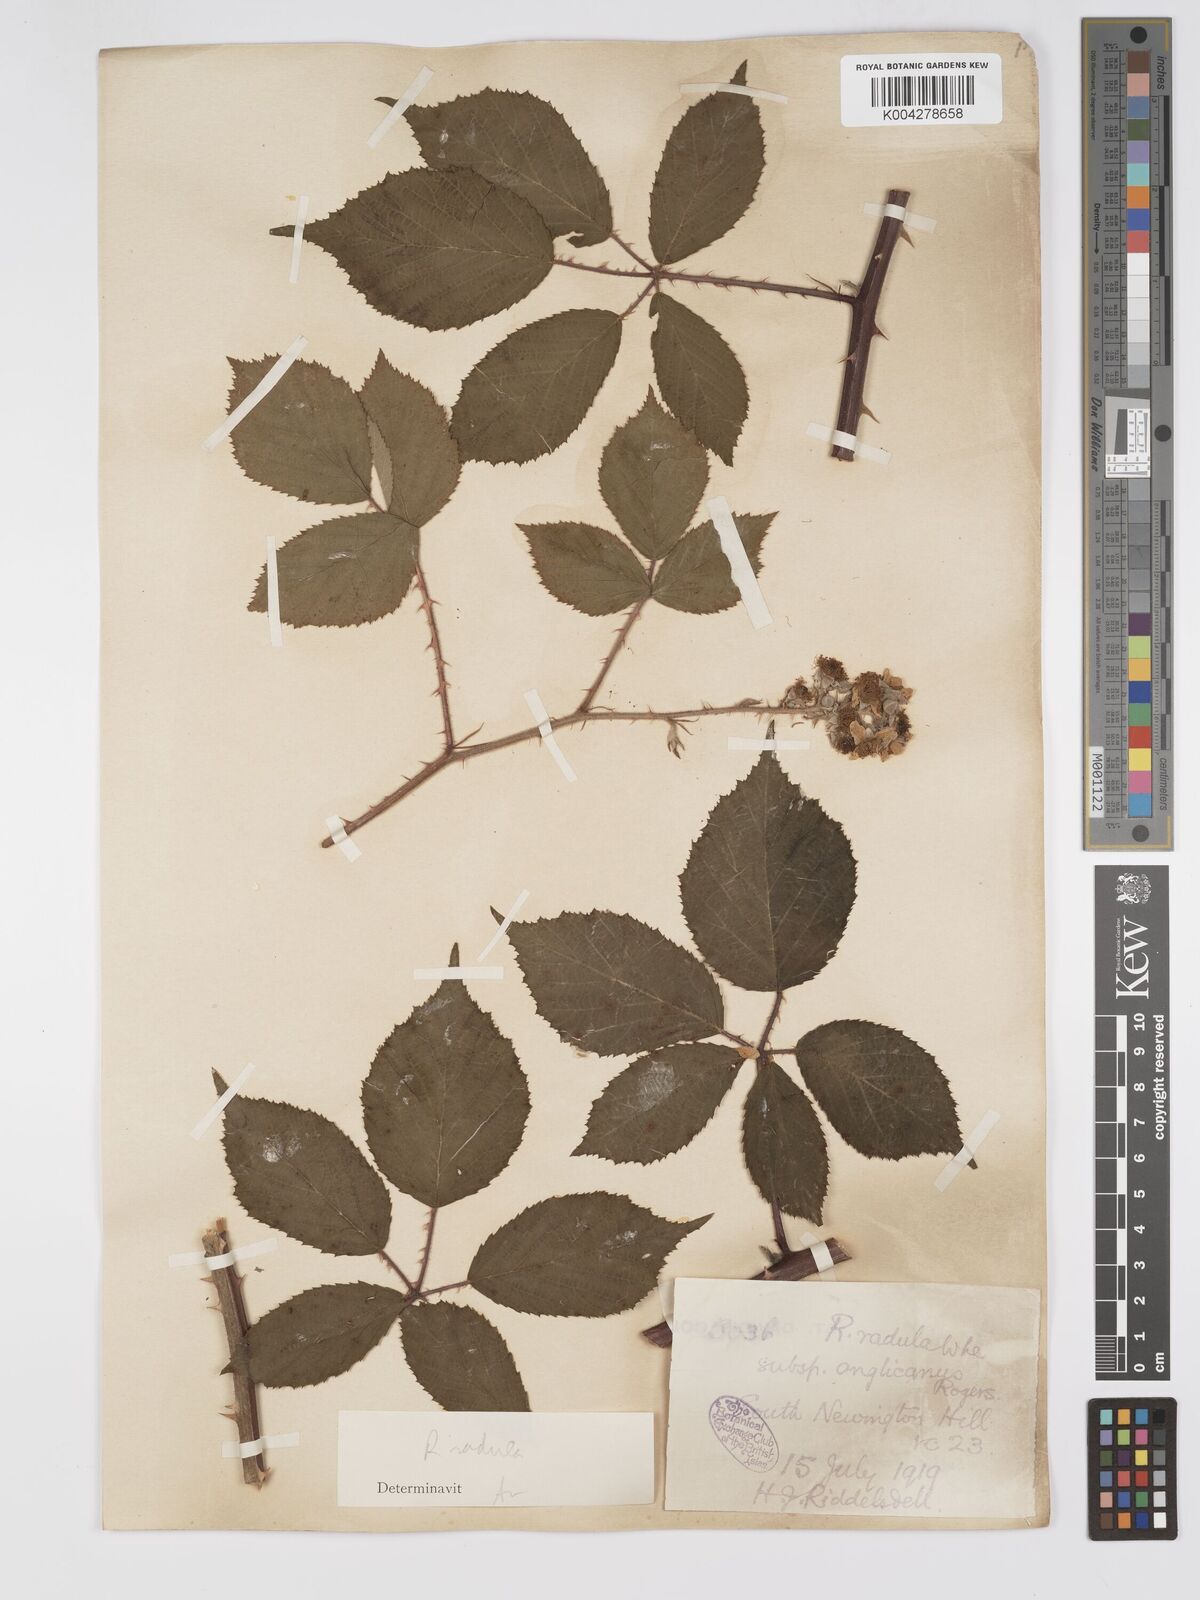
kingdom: Plantae
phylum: Tracheophyta
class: Magnoliopsida
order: Rosales
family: Rosaceae
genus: Rubus
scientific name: Rubus radula
